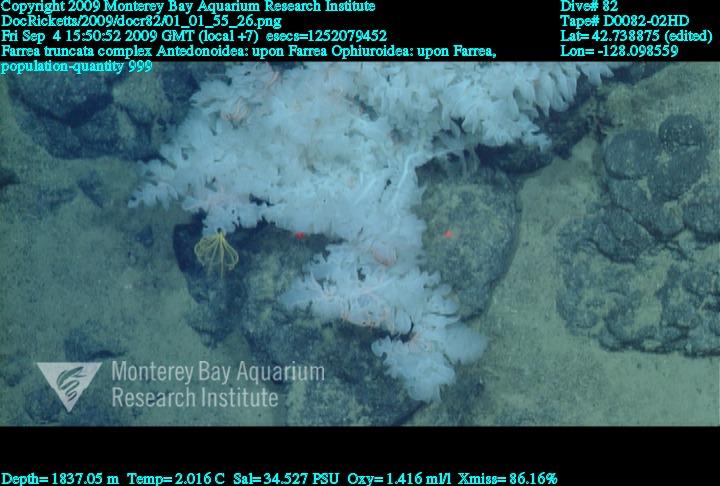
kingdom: Animalia
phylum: Porifera
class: Hexactinellida
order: Sceptrulophora
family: Farreidae
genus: Farrea
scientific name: Farrea truncata
